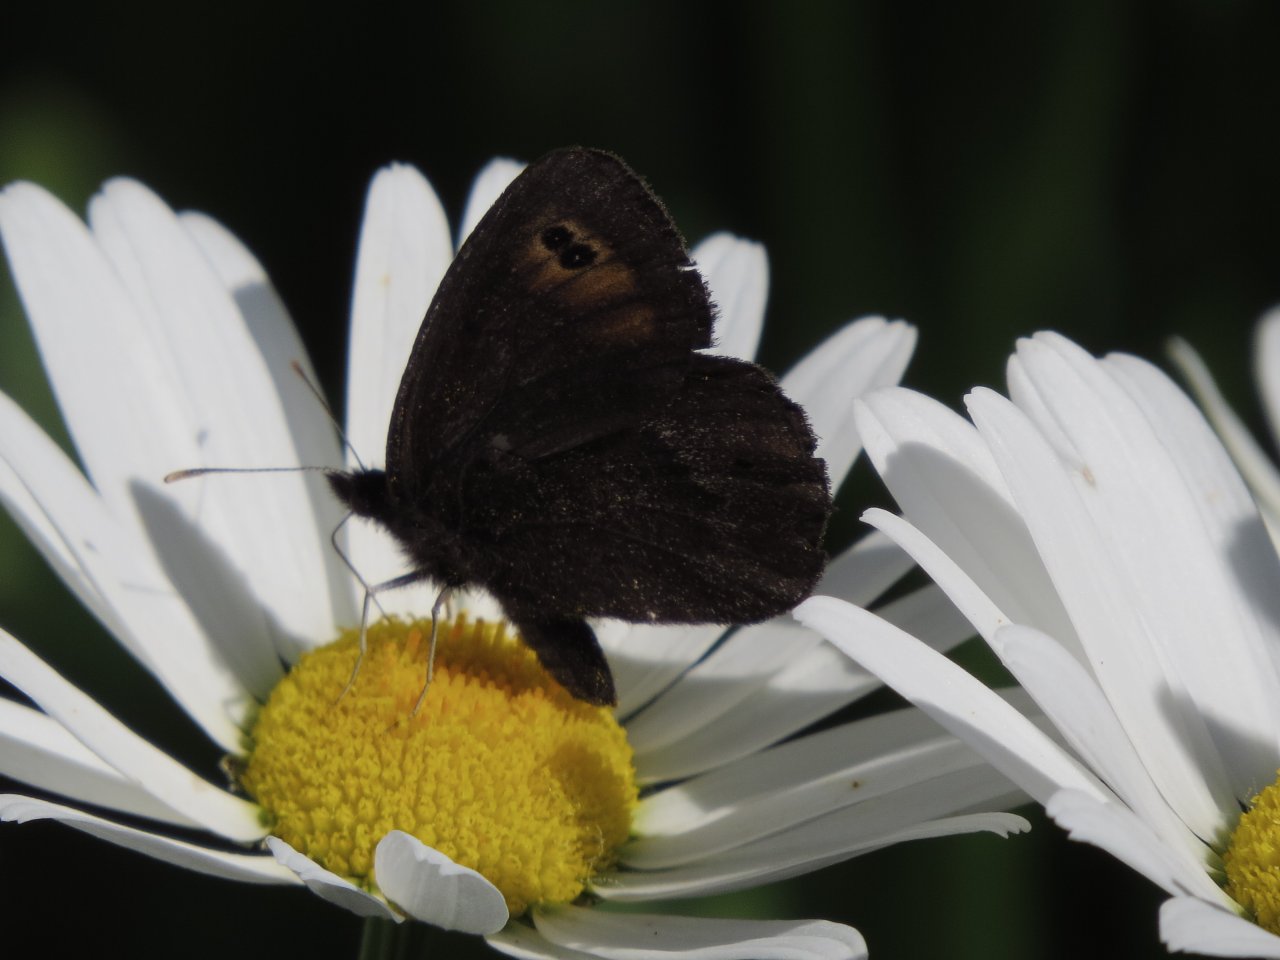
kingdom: Animalia
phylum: Arthropoda
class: Insecta
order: Lepidoptera
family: Nymphalidae
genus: Erebia
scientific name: Erebia epipsodea
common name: Common Alpine
